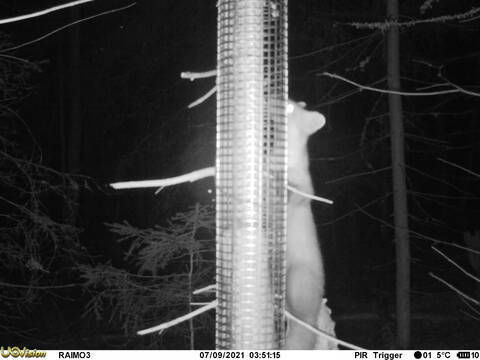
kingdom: Animalia
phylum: Chordata
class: Mammalia
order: Carnivora
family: Mustelidae
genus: Martes
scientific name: Martes martes
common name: European pine marten
